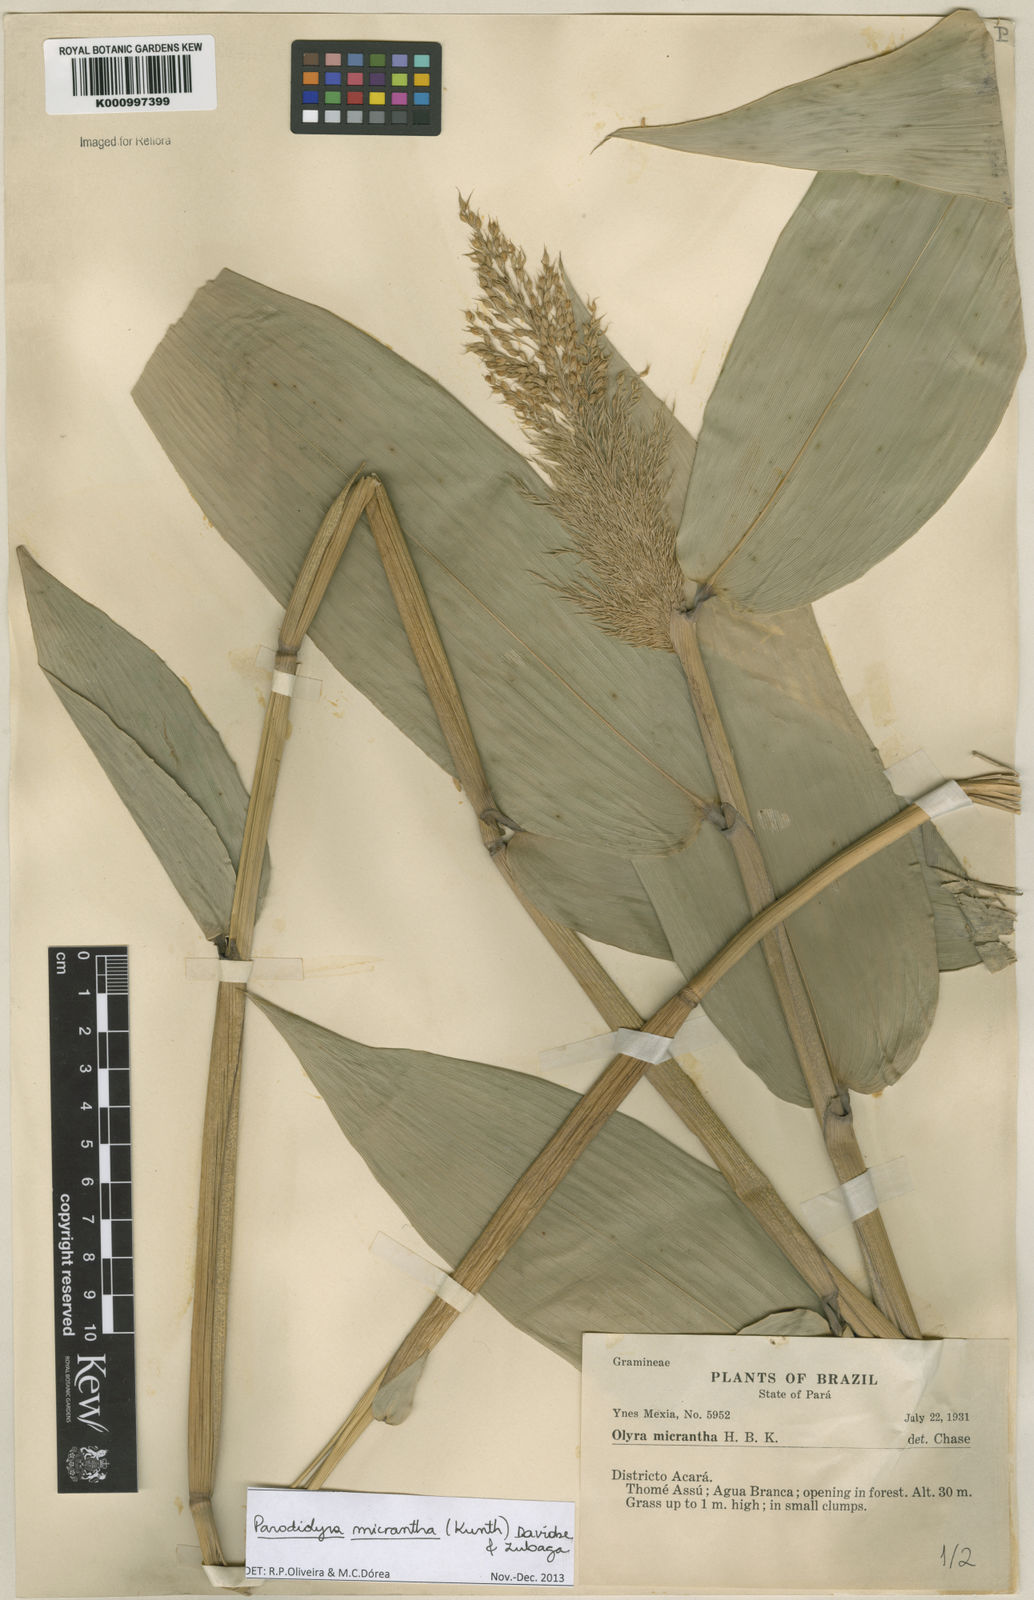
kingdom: Plantae
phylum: Tracheophyta
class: Liliopsida
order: Poales
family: Poaceae
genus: Taquara
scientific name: Taquara micrantha
